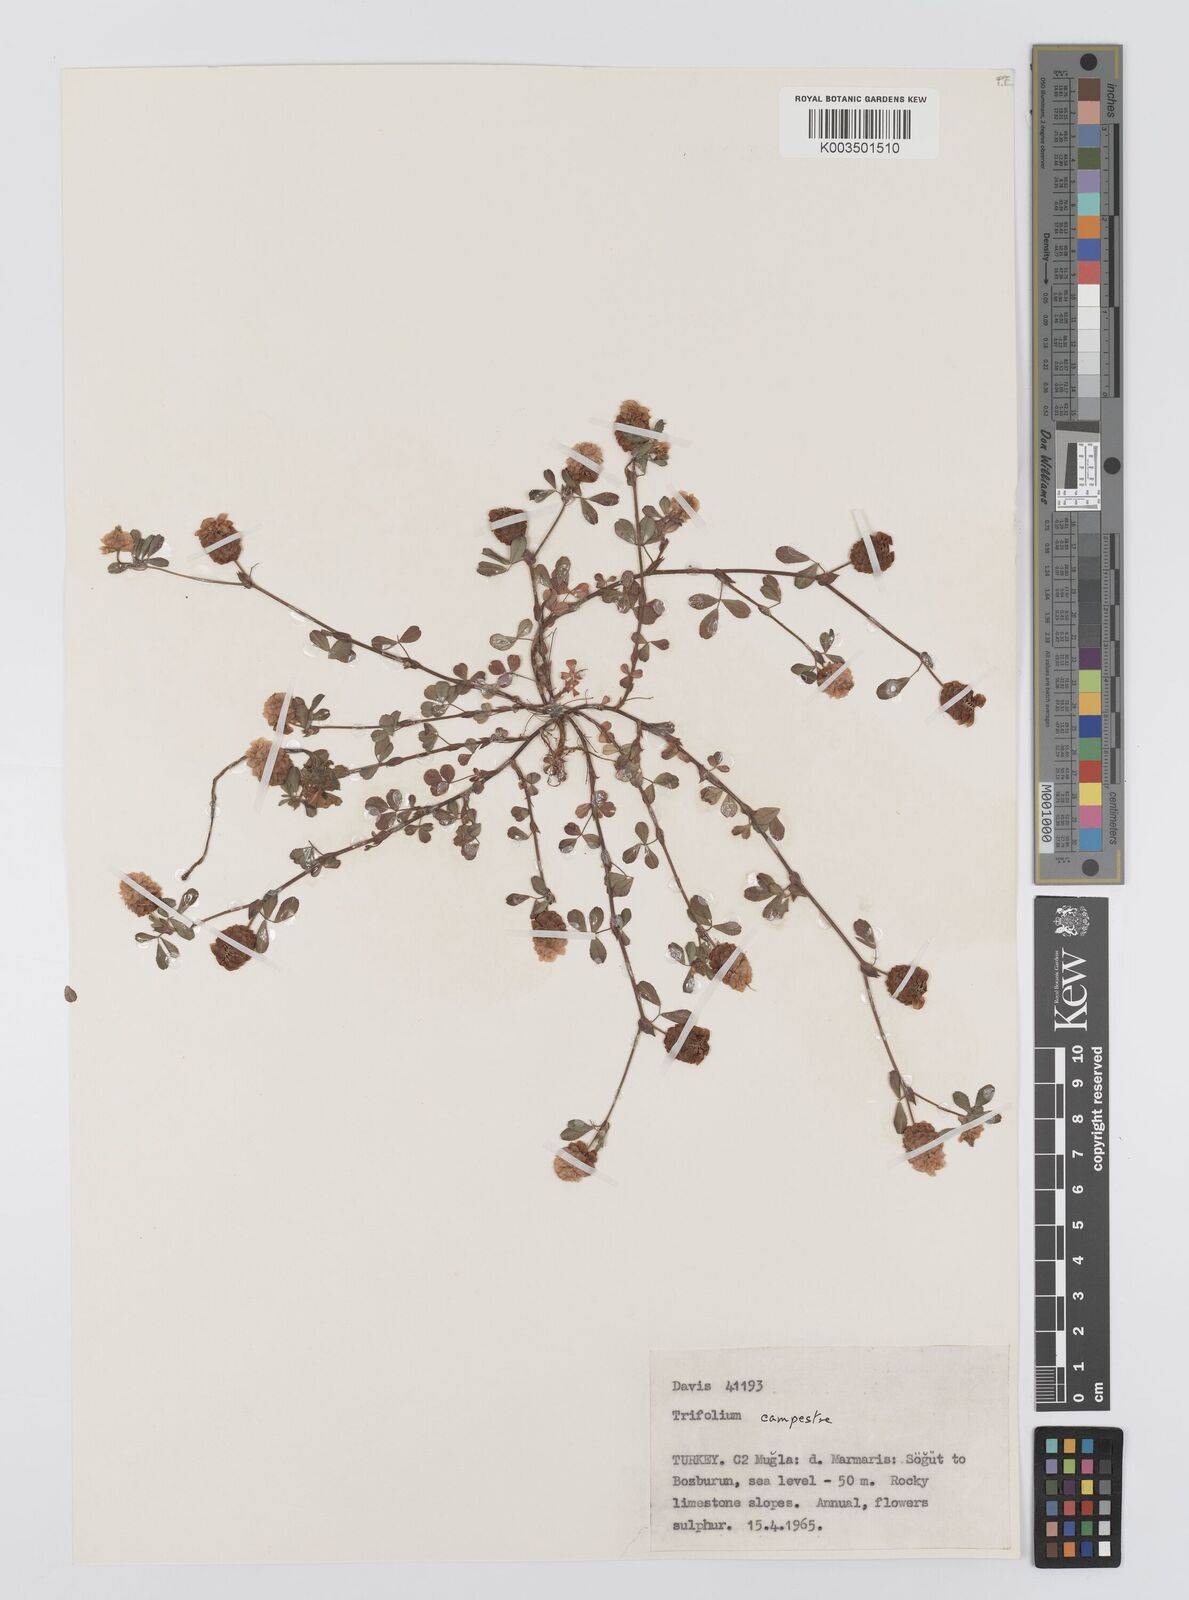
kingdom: Plantae
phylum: Tracheophyta
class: Magnoliopsida
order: Fabales
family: Fabaceae
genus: Trifolium
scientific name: Trifolium campestre
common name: Field clover
